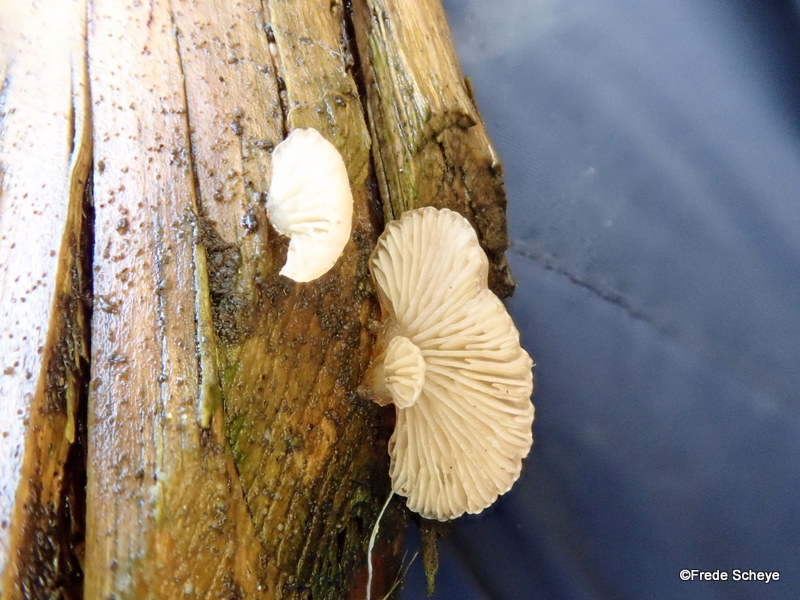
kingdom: Fungi
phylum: Basidiomycota
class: Agaricomycetes
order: Agaricales
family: Mycenaceae
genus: Panellus
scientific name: Panellus mitis
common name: mild epaulethat
